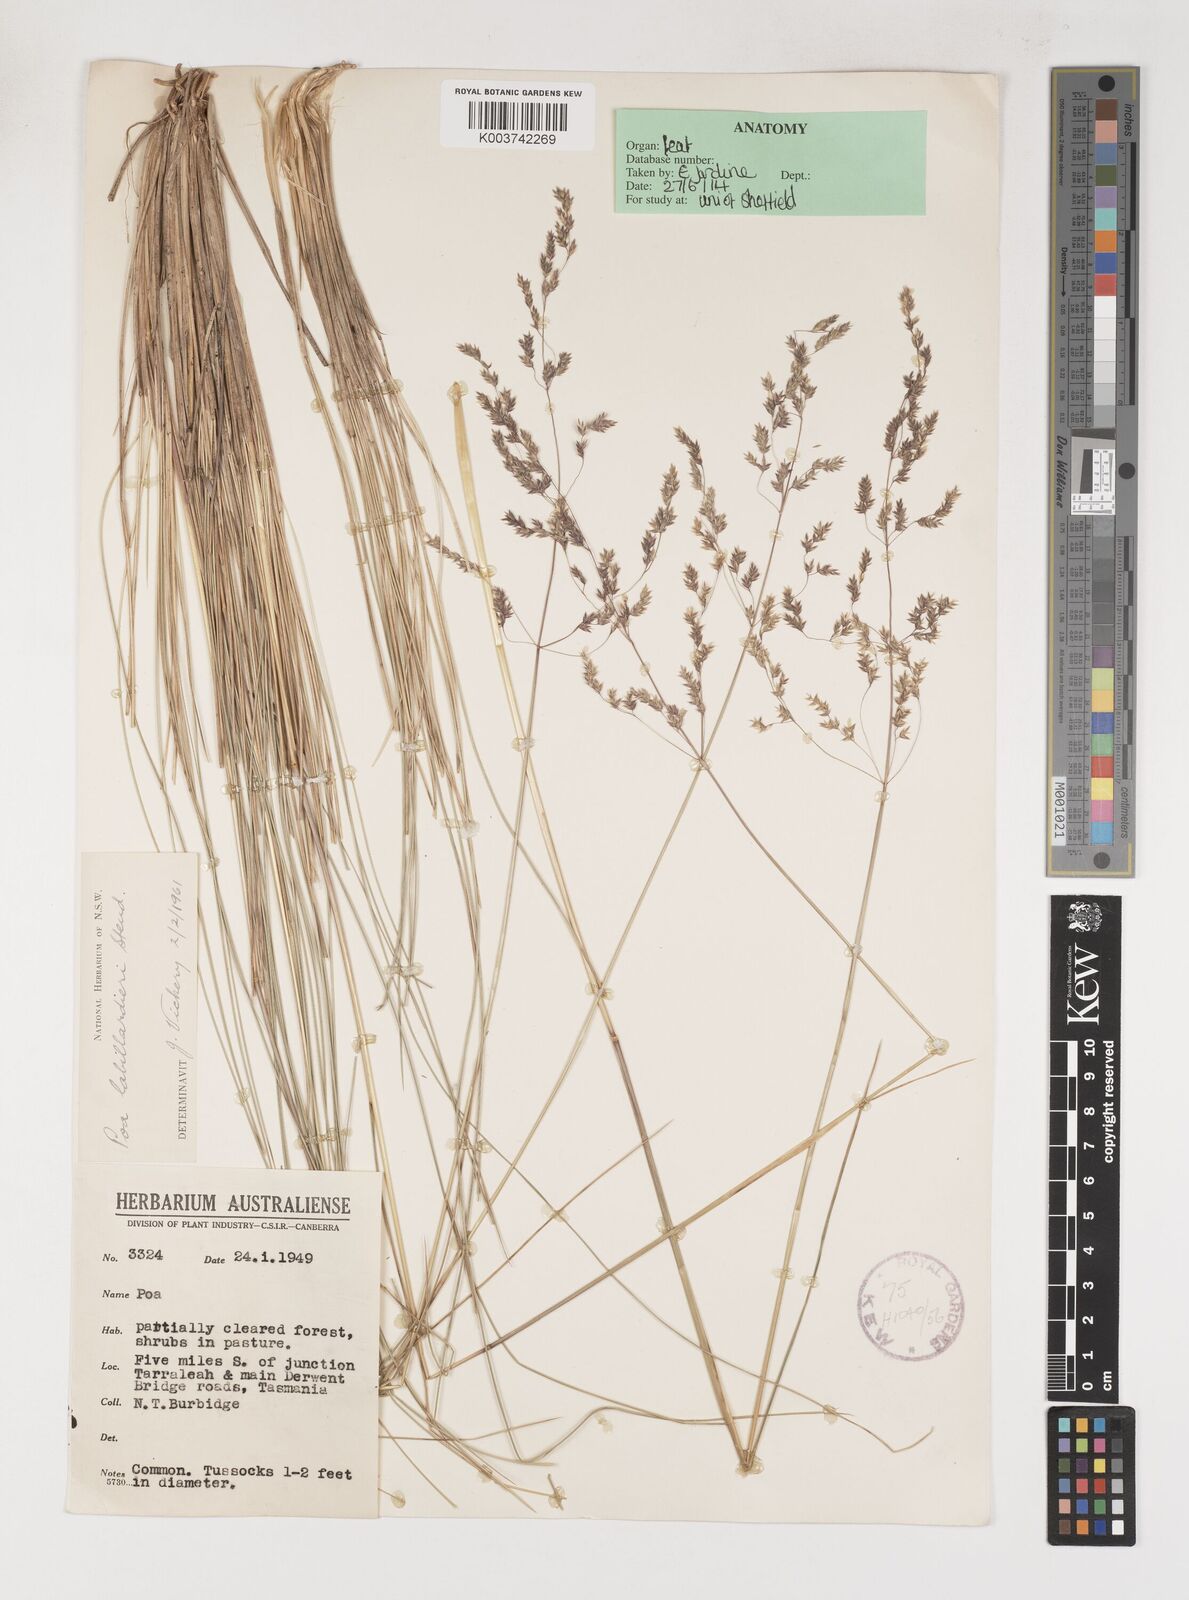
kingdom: Plantae
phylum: Tracheophyta
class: Liliopsida
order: Poales
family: Poaceae
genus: Poa
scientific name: Poa labillardierei
